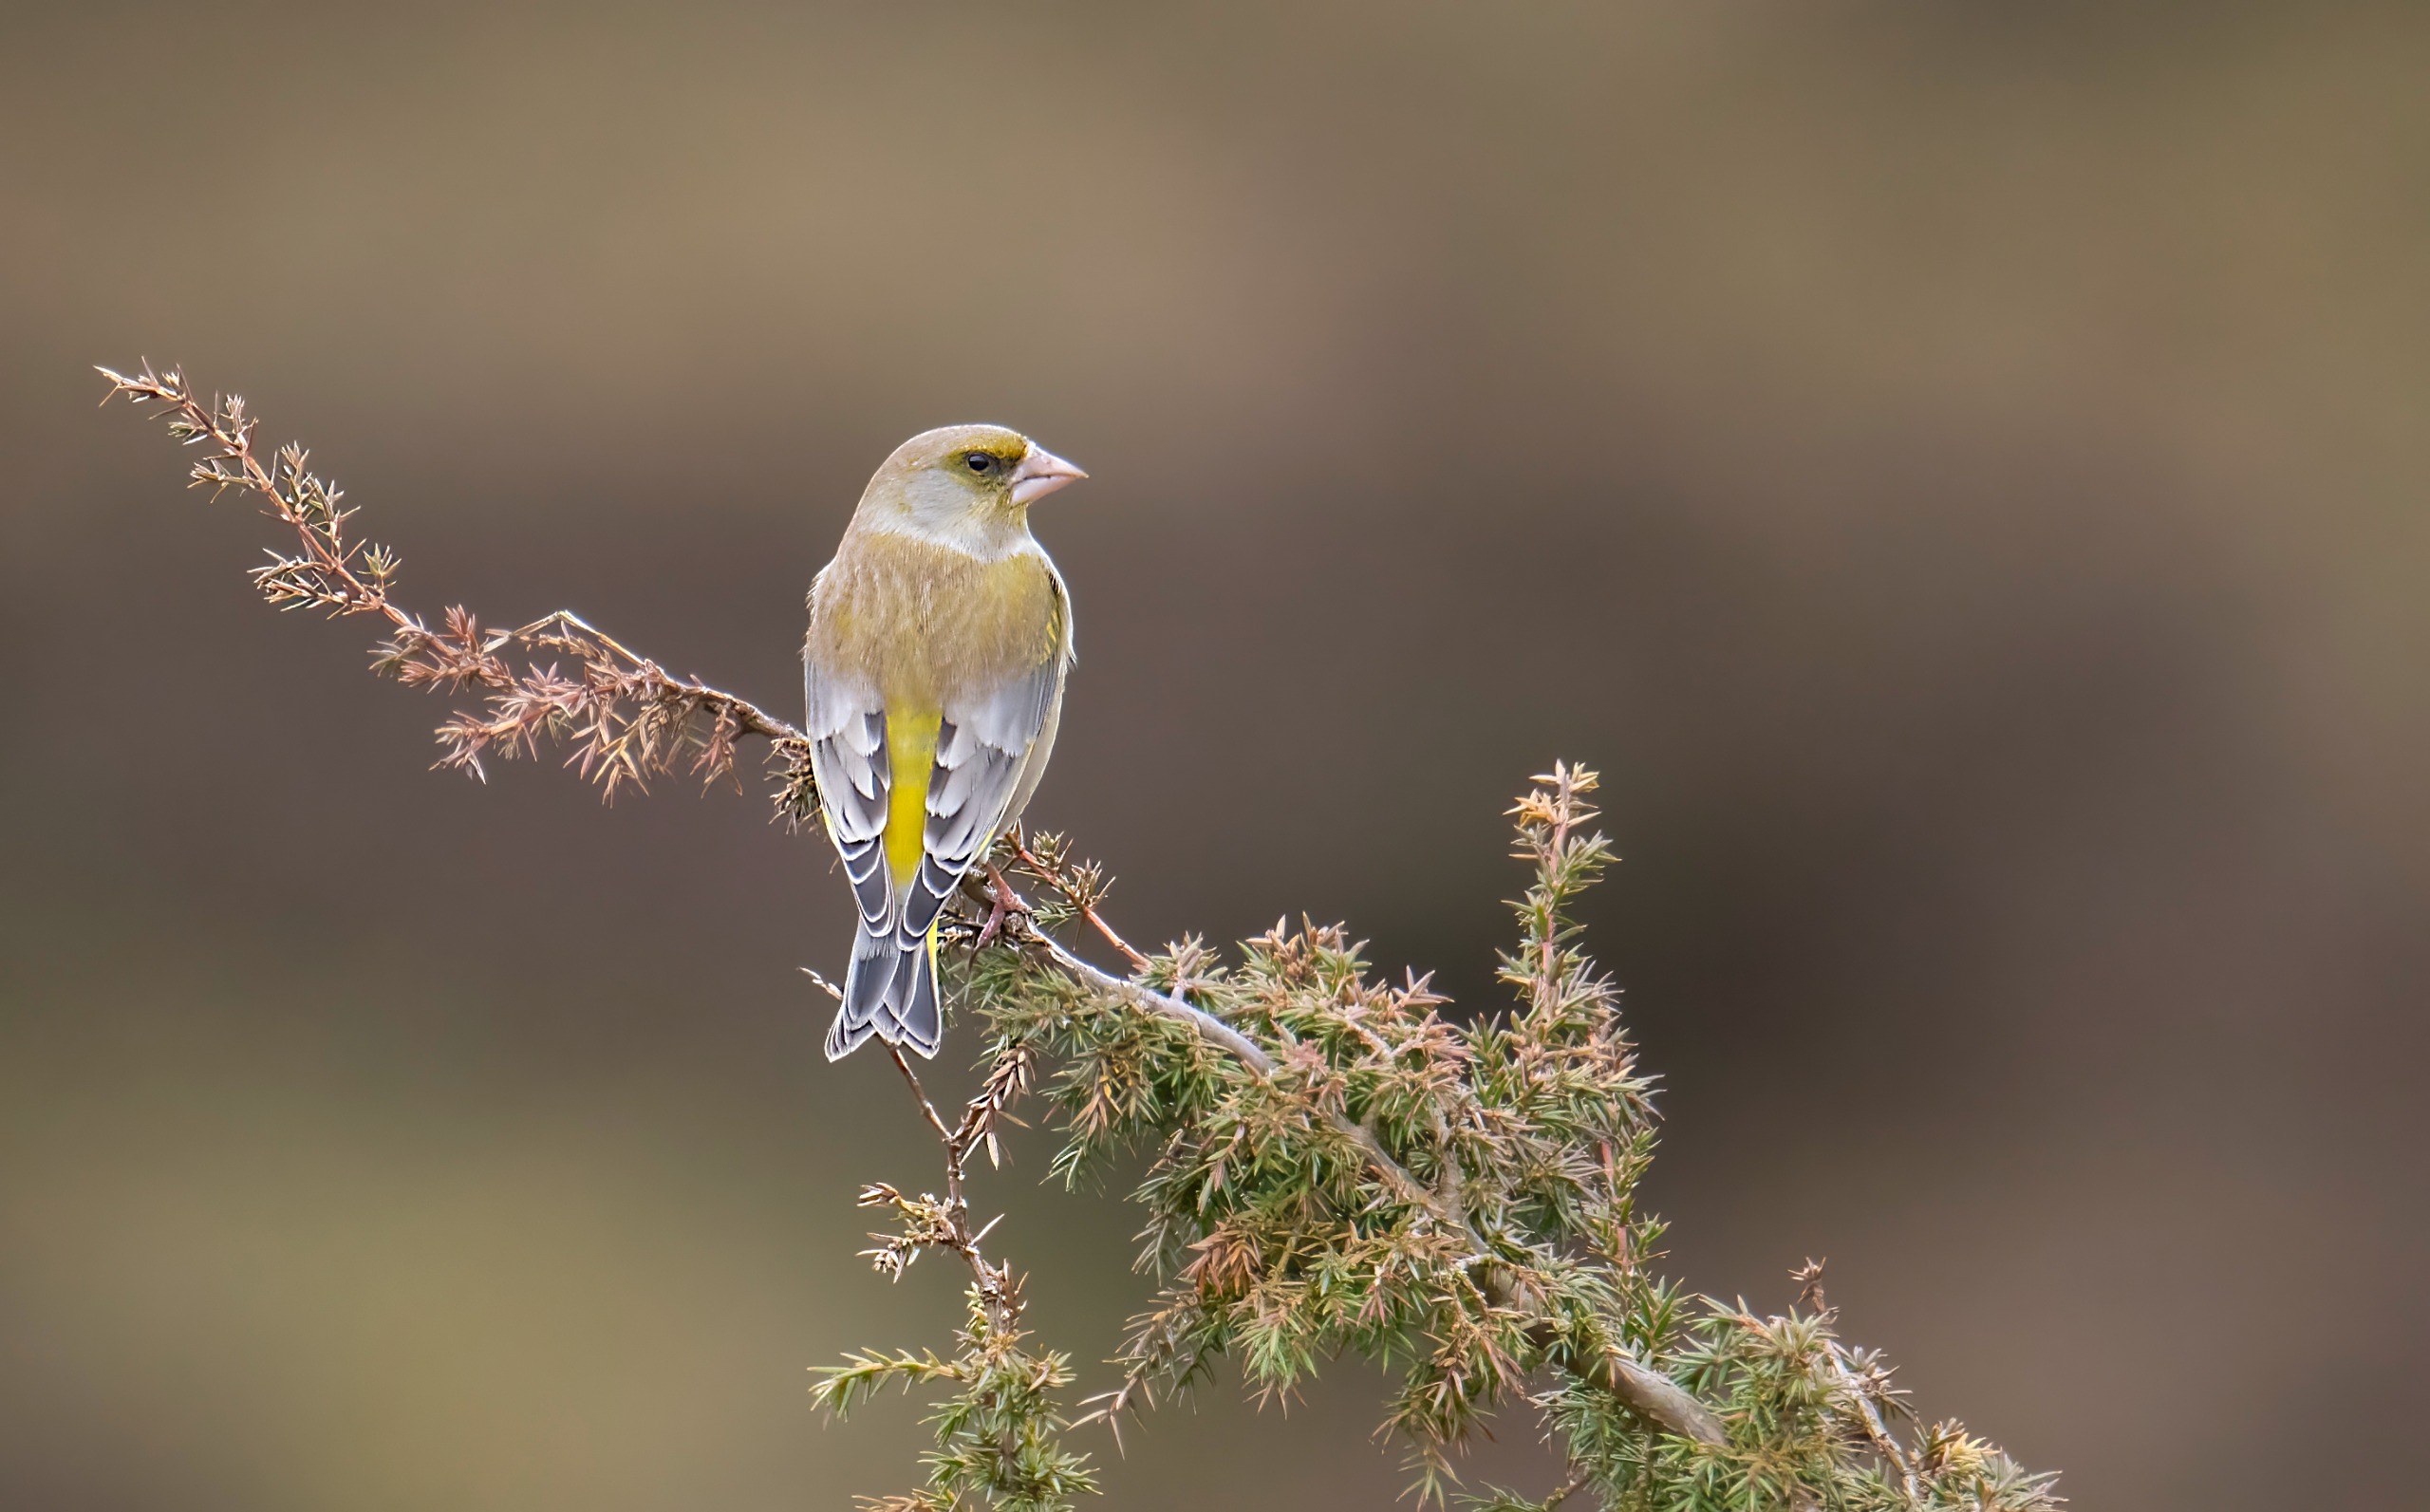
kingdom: Plantae
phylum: Tracheophyta
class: Liliopsida
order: Poales
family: Poaceae
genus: Chloris
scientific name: Chloris chloris
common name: Grønirisk
